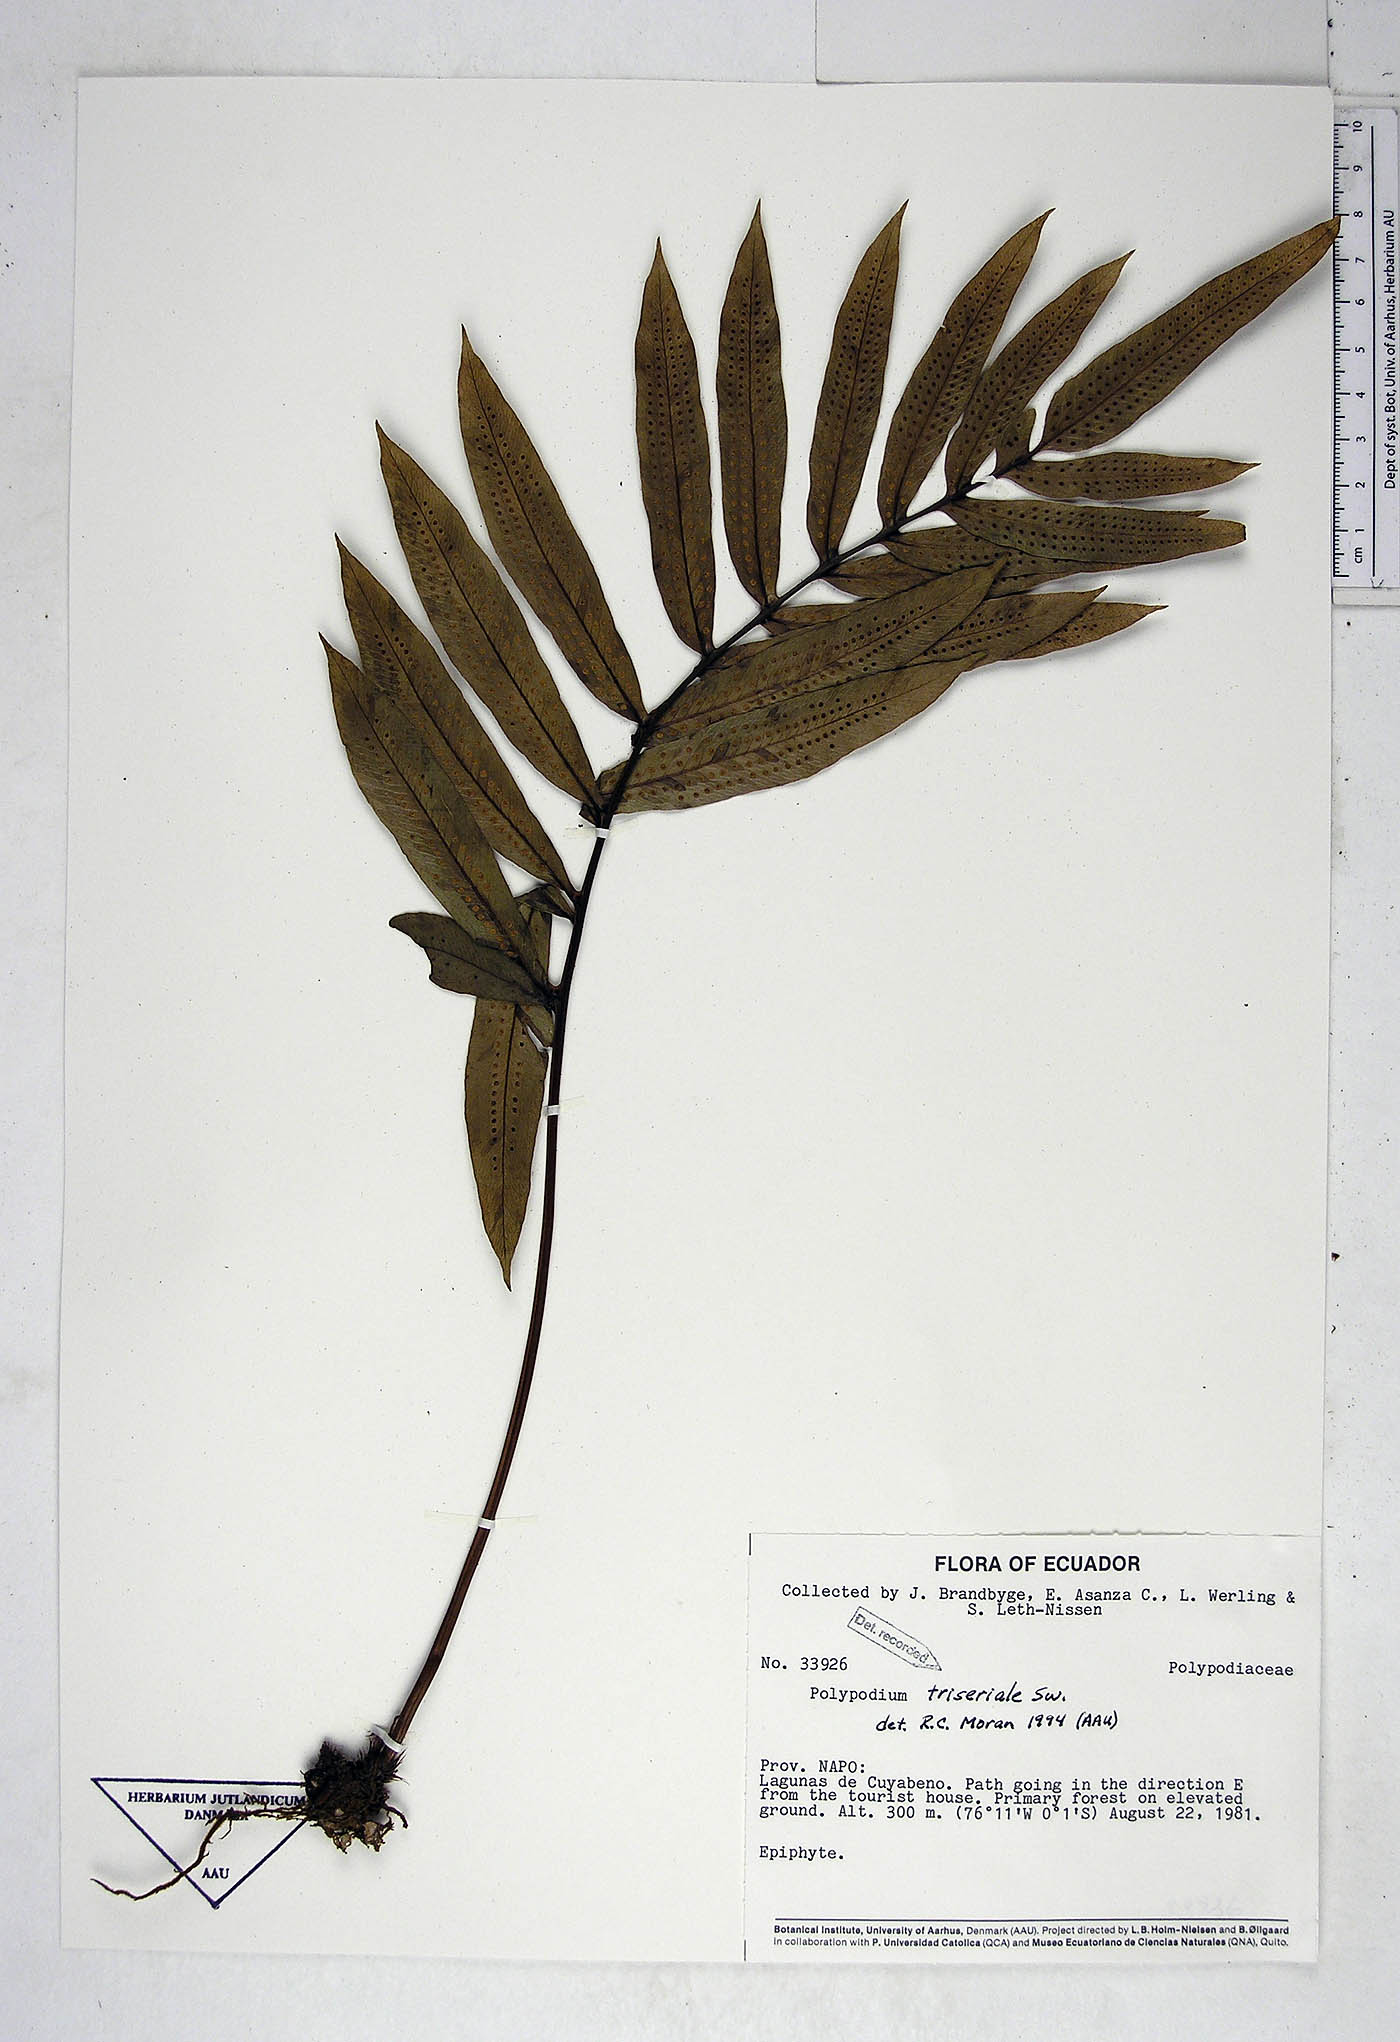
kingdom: Plantae
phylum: Tracheophyta
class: Polypodiopsida
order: Polypodiales
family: Polypodiaceae
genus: Serpocaulon
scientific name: Serpocaulon triseriale
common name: Angle-vein fern
